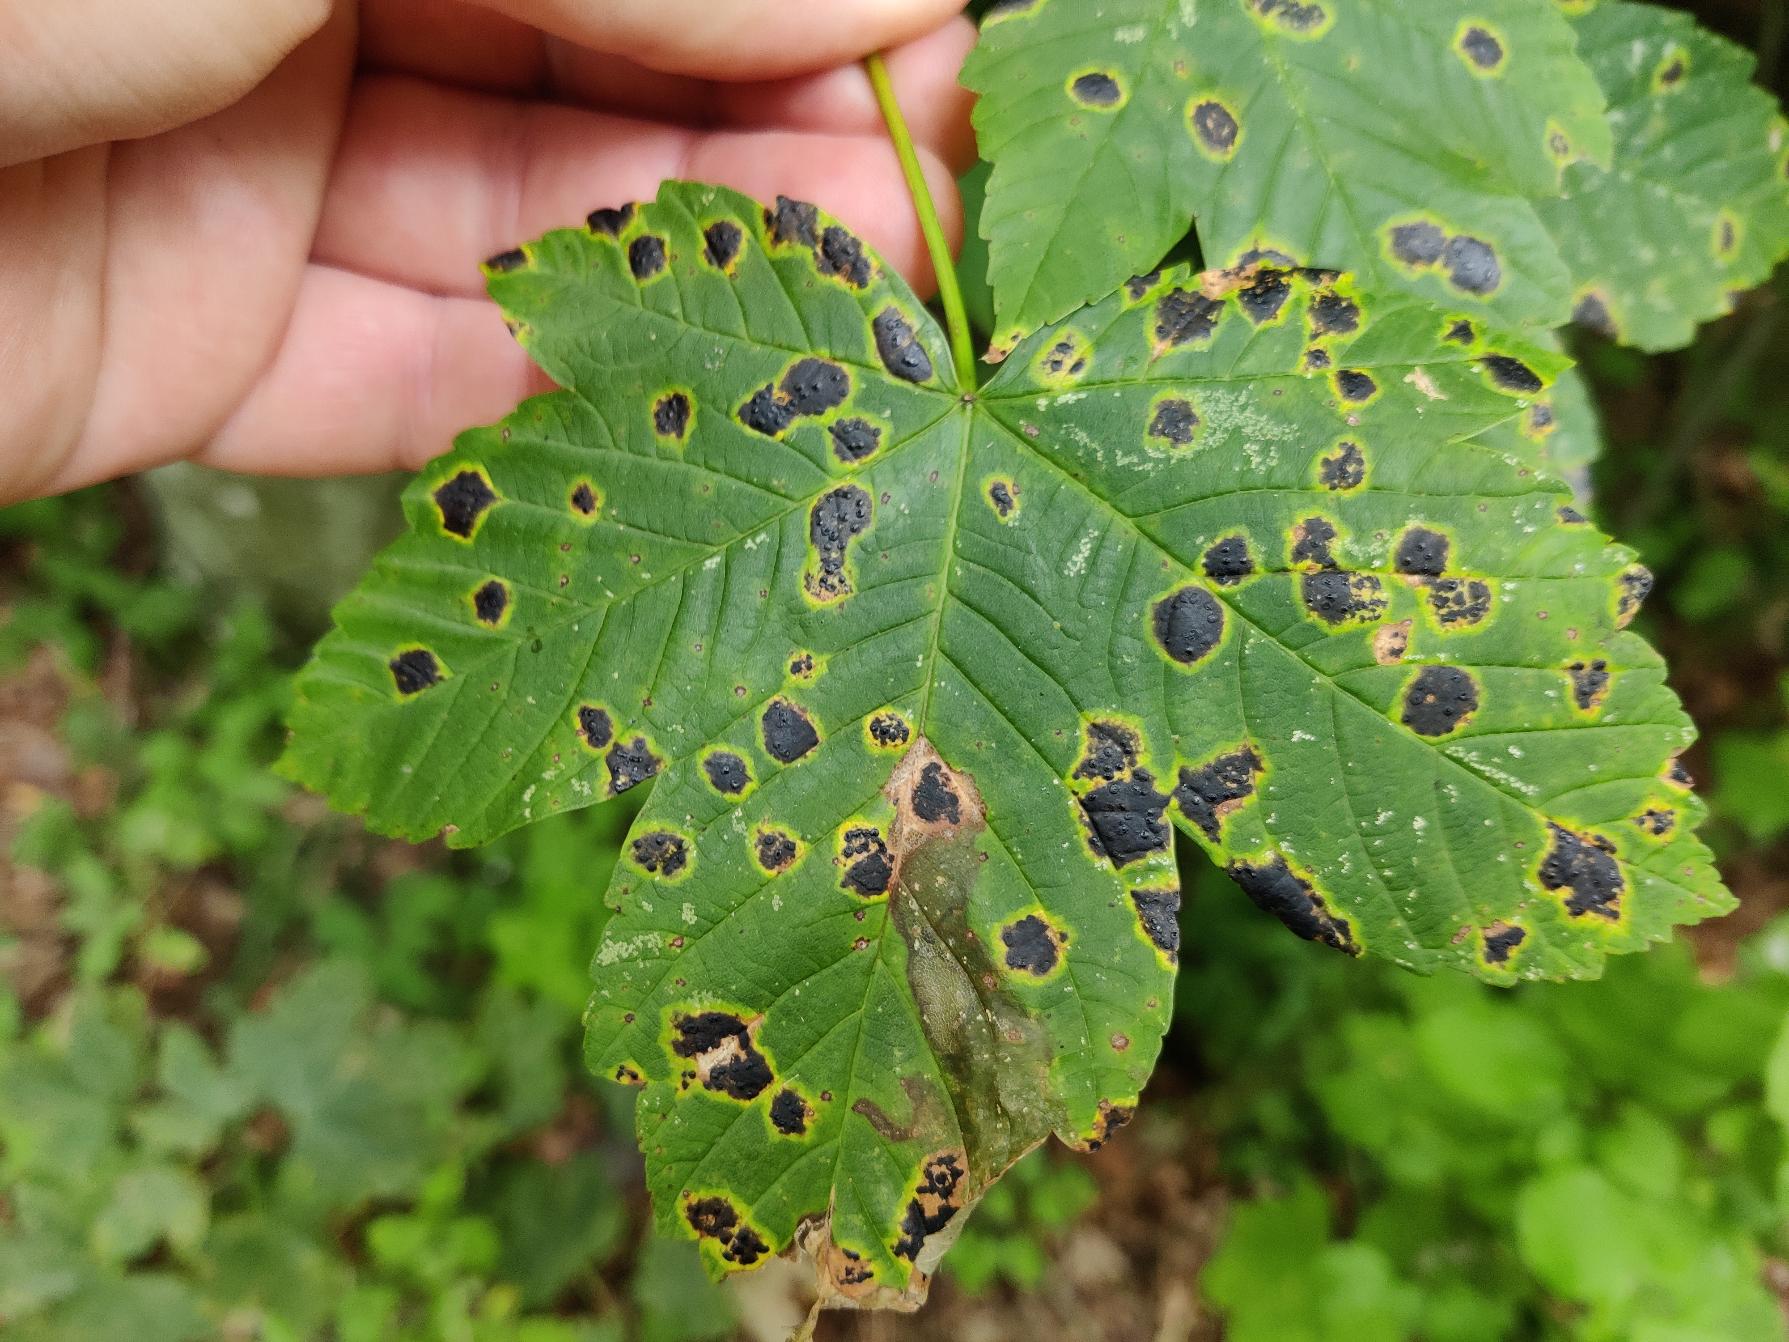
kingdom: Fungi
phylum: Ascomycota
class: Leotiomycetes
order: Rhytismatales
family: Rhytismataceae
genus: Rhytisma
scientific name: Rhytisma acerinum
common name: Ahorn-rynkeplet
